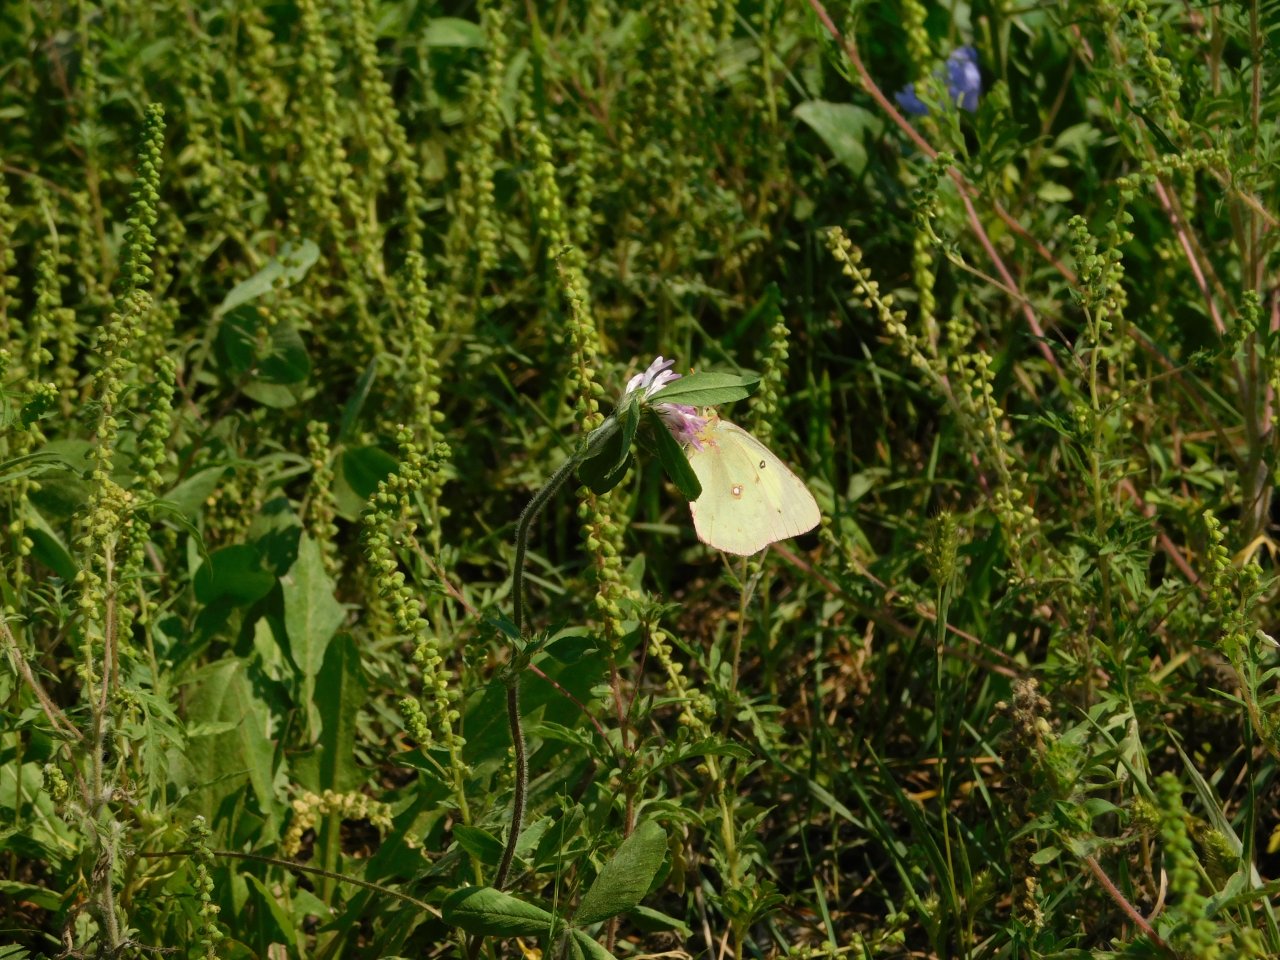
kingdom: Animalia
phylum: Arthropoda
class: Insecta
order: Lepidoptera
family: Pieridae
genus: Colias
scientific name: Colias philodice
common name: Clouded Sulphur
